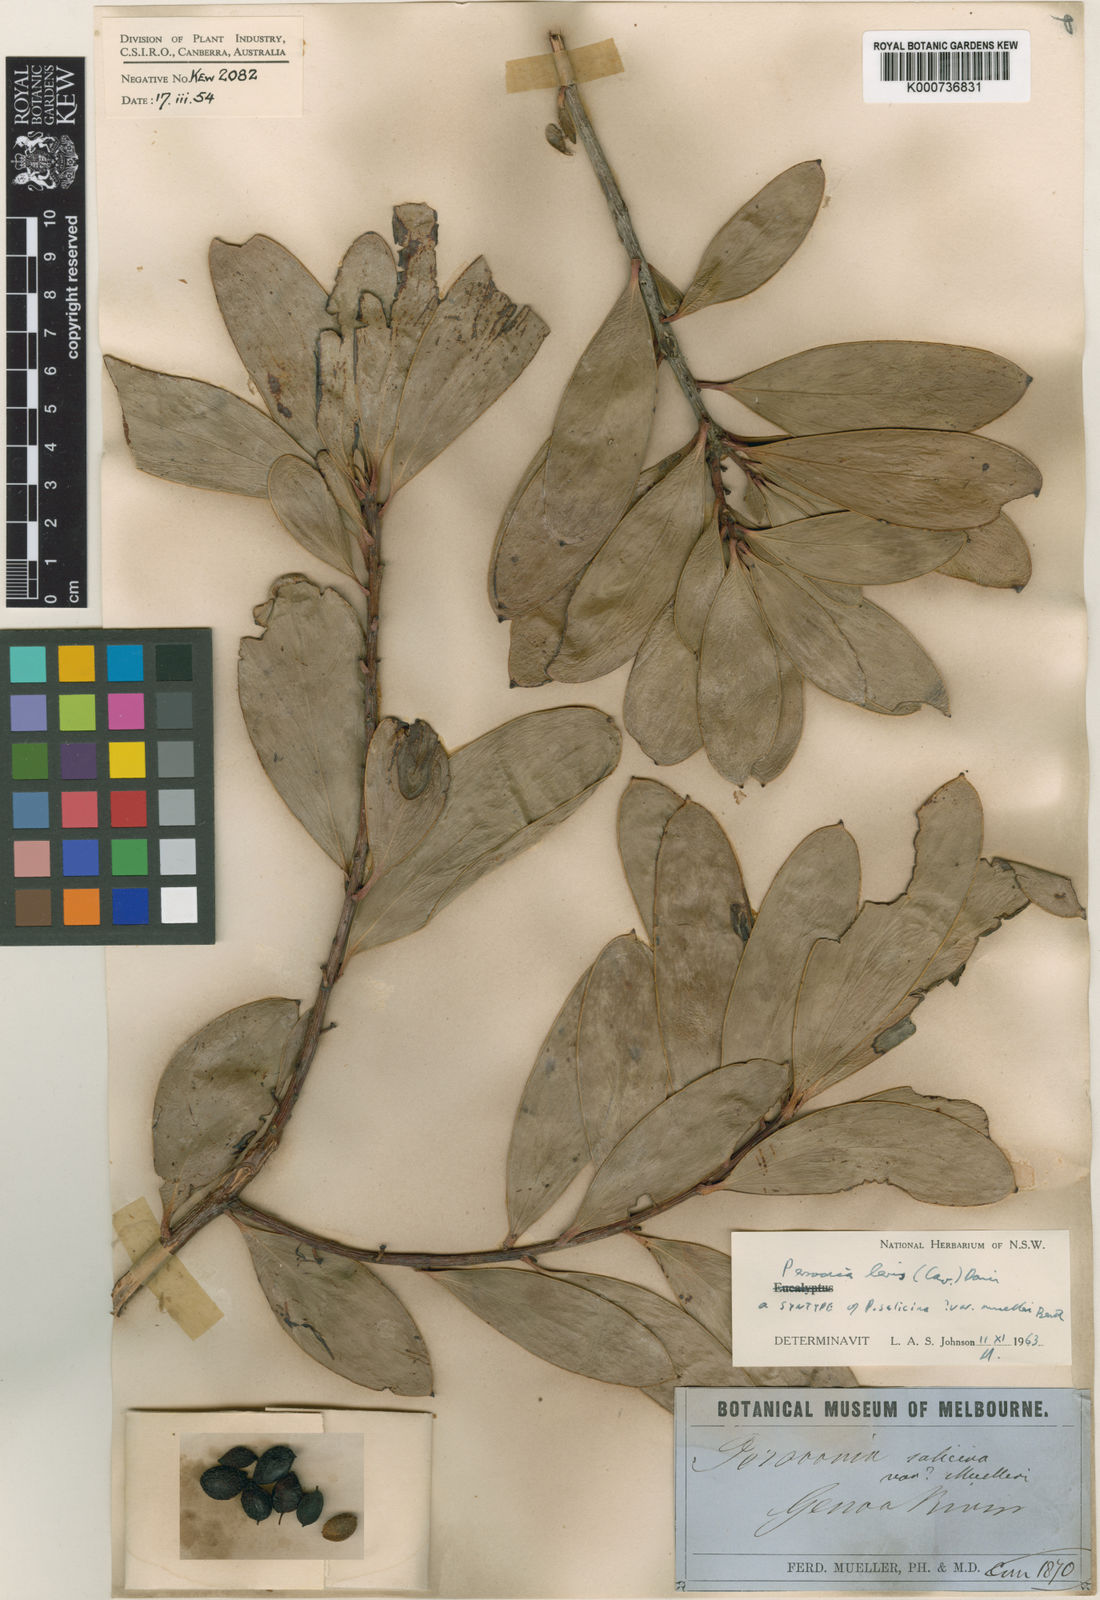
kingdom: Plantae
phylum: Tracheophyta
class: Magnoliopsida
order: Proteales
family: Proteaceae
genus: Persoonia
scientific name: Persoonia levis
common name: Smooth geebung
